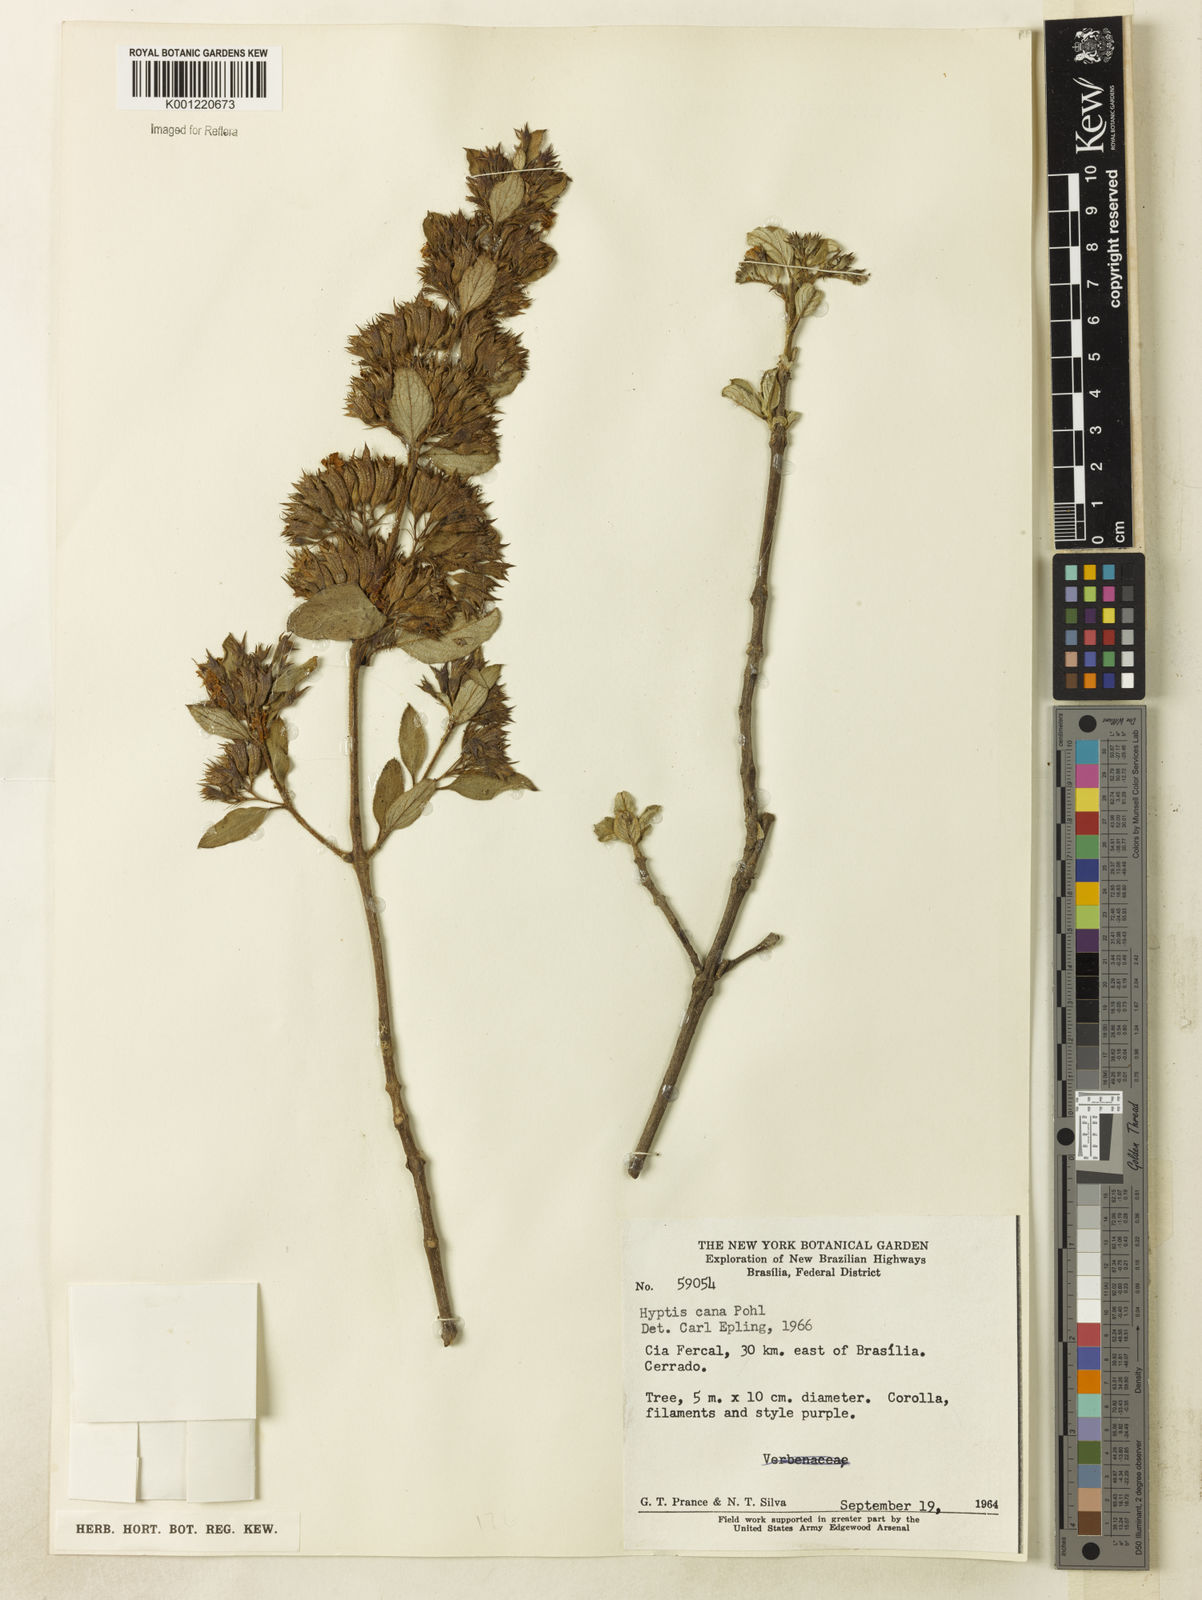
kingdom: Plantae
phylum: Tracheophyta
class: Magnoliopsida
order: Lamiales
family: Lamiaceae
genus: Hyptidendron
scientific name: Hyptidendron canum
